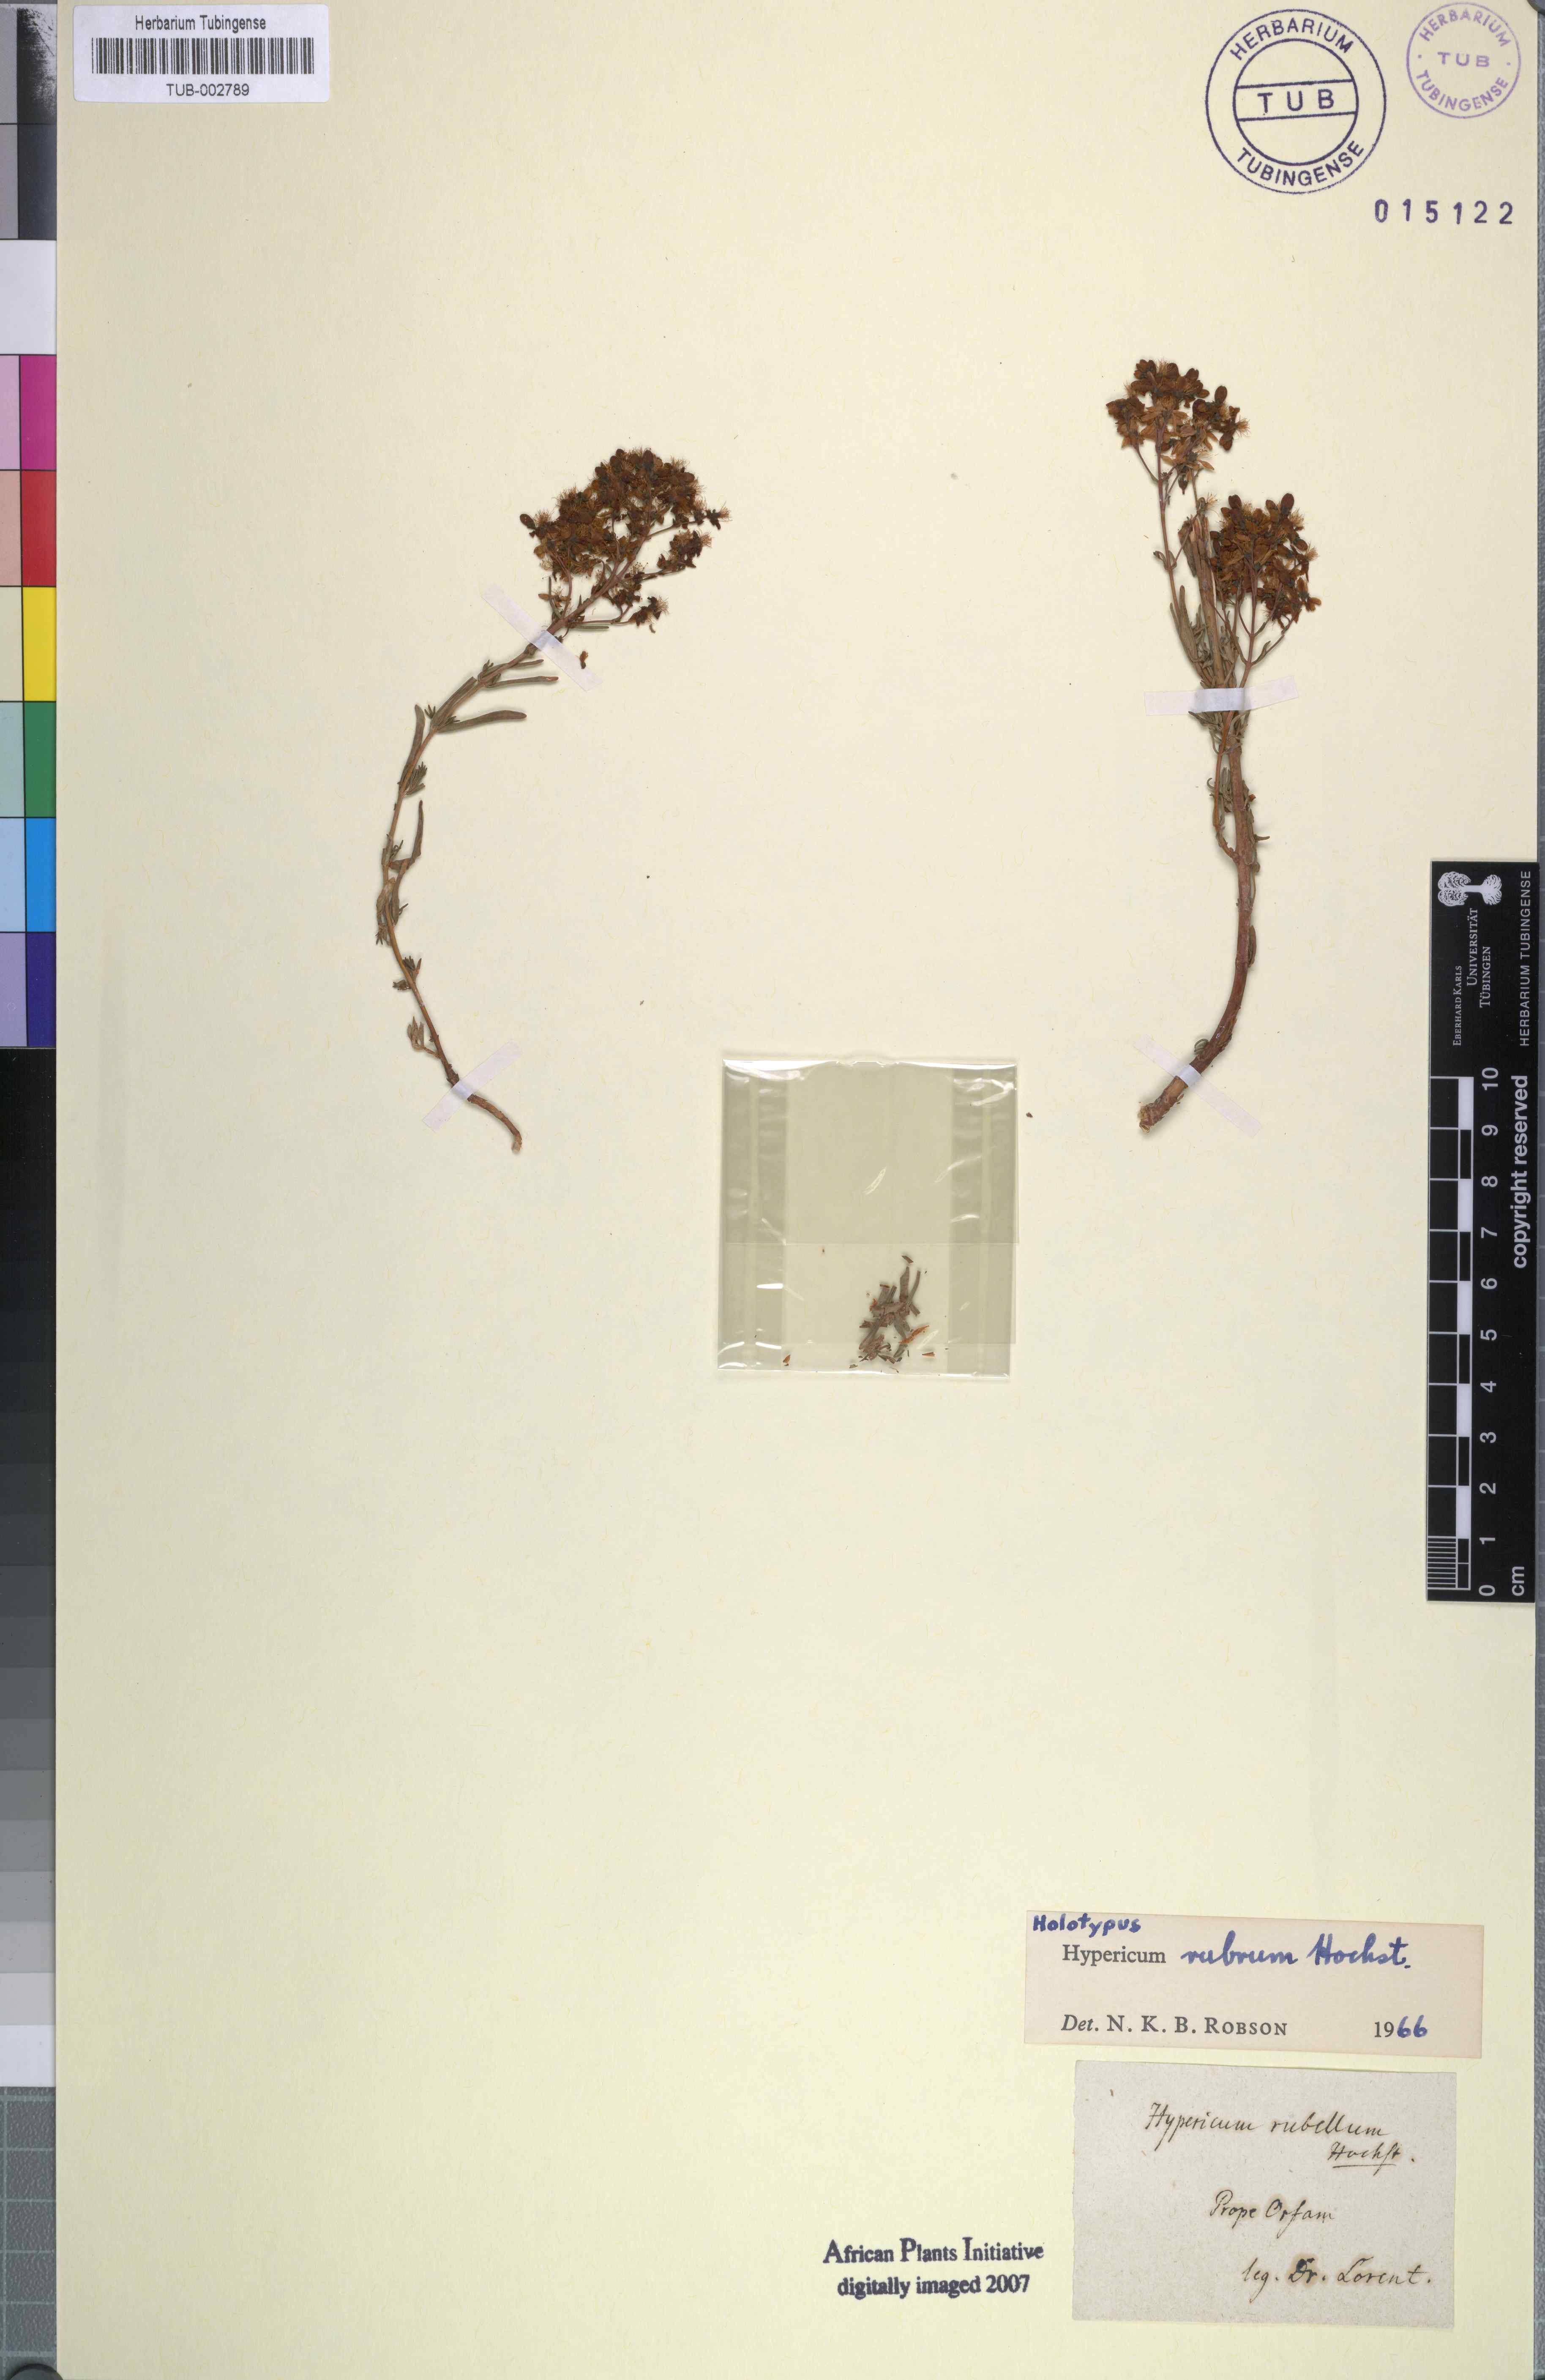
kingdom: Plantae
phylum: Tracheophyta
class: Magnoliopsida
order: Malpighiales
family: Hypericaceae
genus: Hypericum
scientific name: Hypericum capitatum
